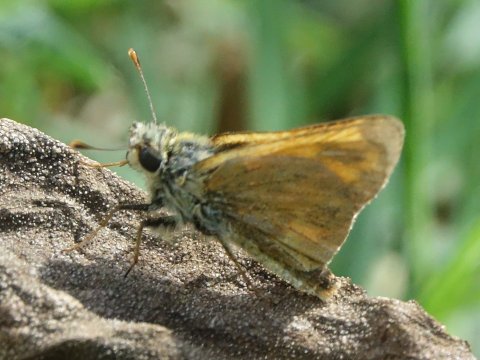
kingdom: Animalia
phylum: Arthropoda
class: Insecta
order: Lepidoptera
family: Hesperiidae
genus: Ochlodes
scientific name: Ochlodes sylvanoides
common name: Woodland Skipper
